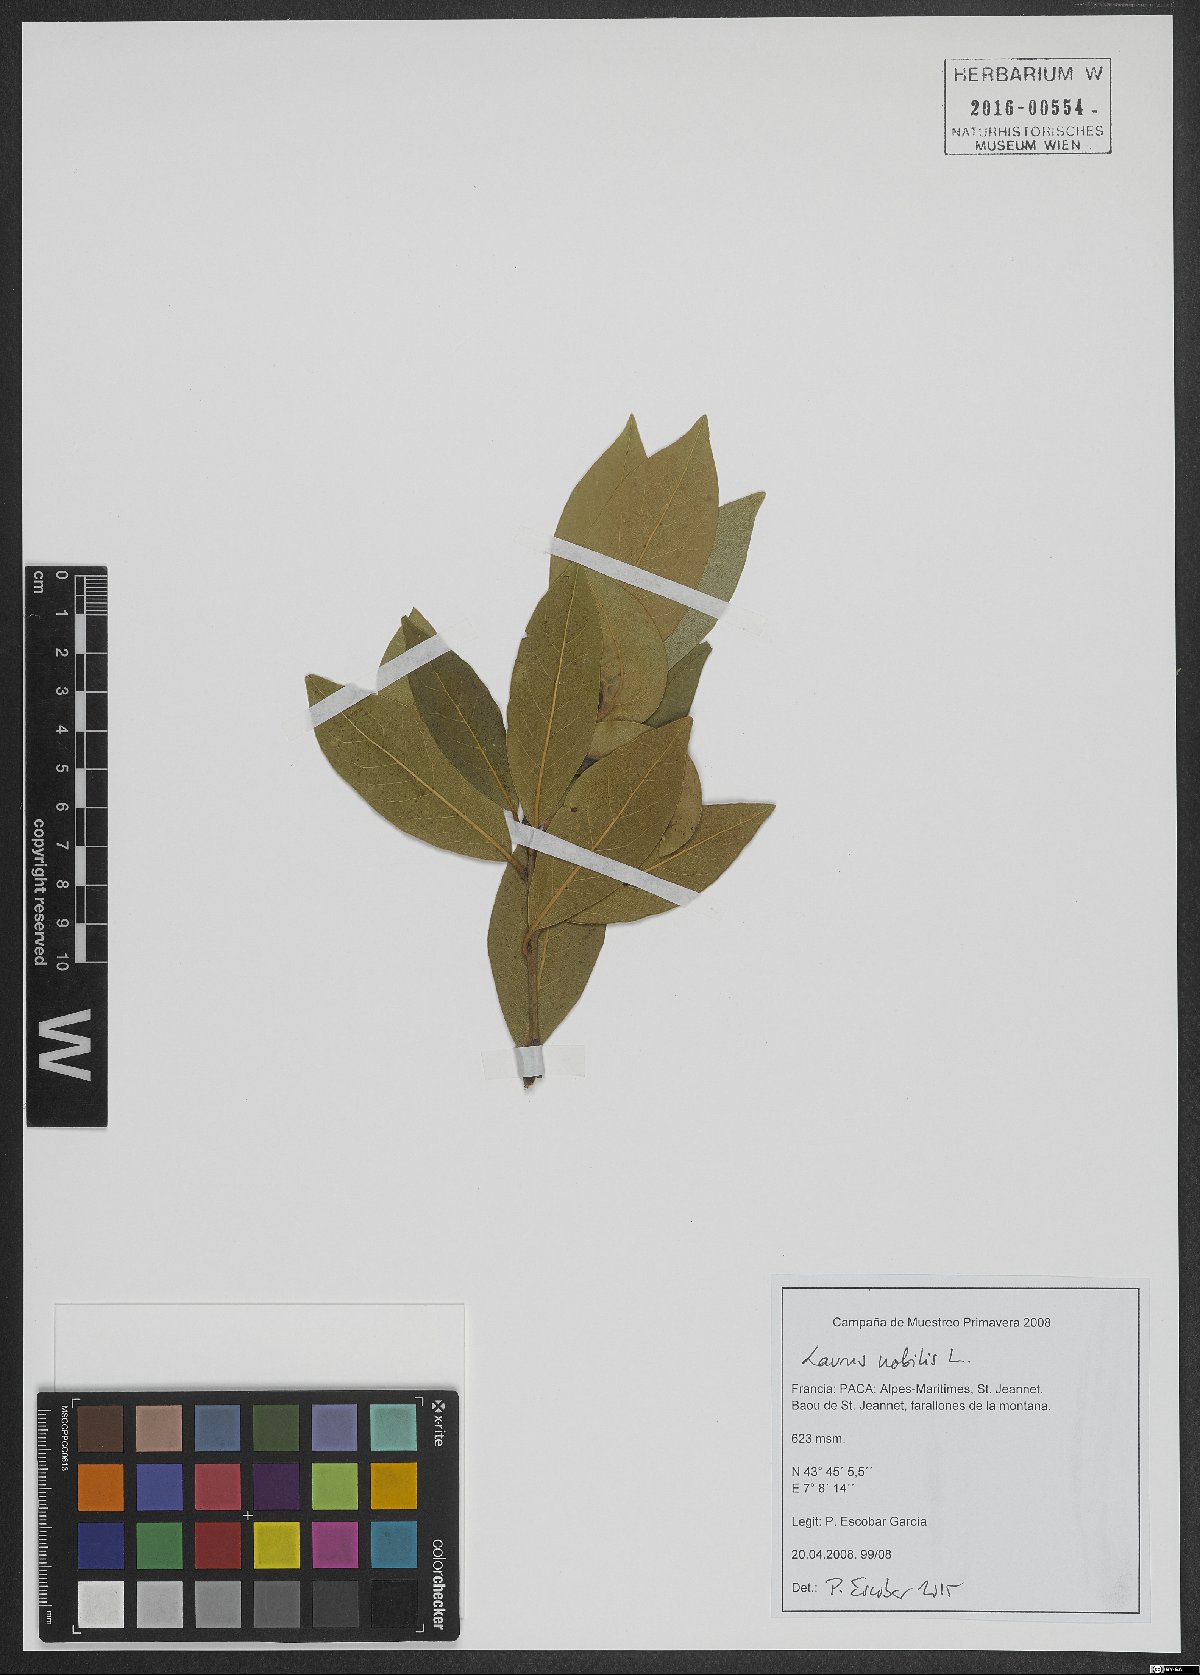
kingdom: Plantae
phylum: Tracheophyta
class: Magnoliopsida
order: Laurales
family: Lauraceae
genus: Laurus
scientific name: Laurus nobilis
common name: Bay
